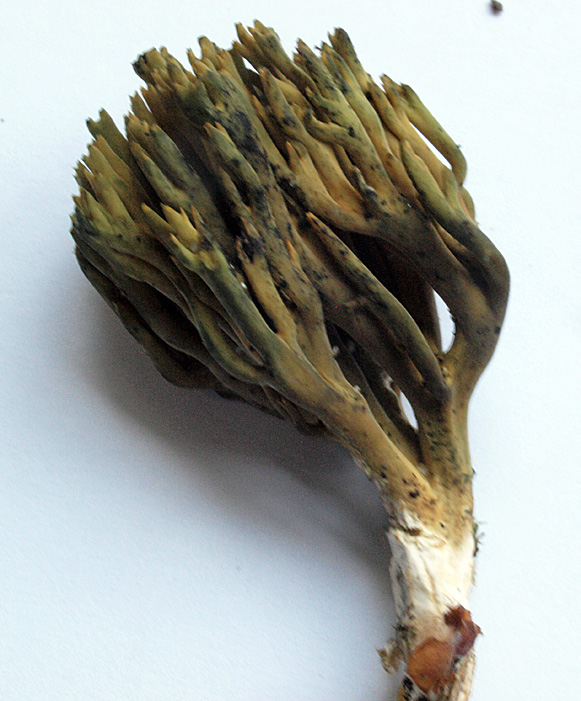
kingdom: Fungi
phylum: Basidiomycota
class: Agaricomycetes
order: Gomphales
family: Gomphaceae
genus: Phaeoclavulina
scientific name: Phaeoclavulina abietina
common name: gulgrøn koralsvamp
